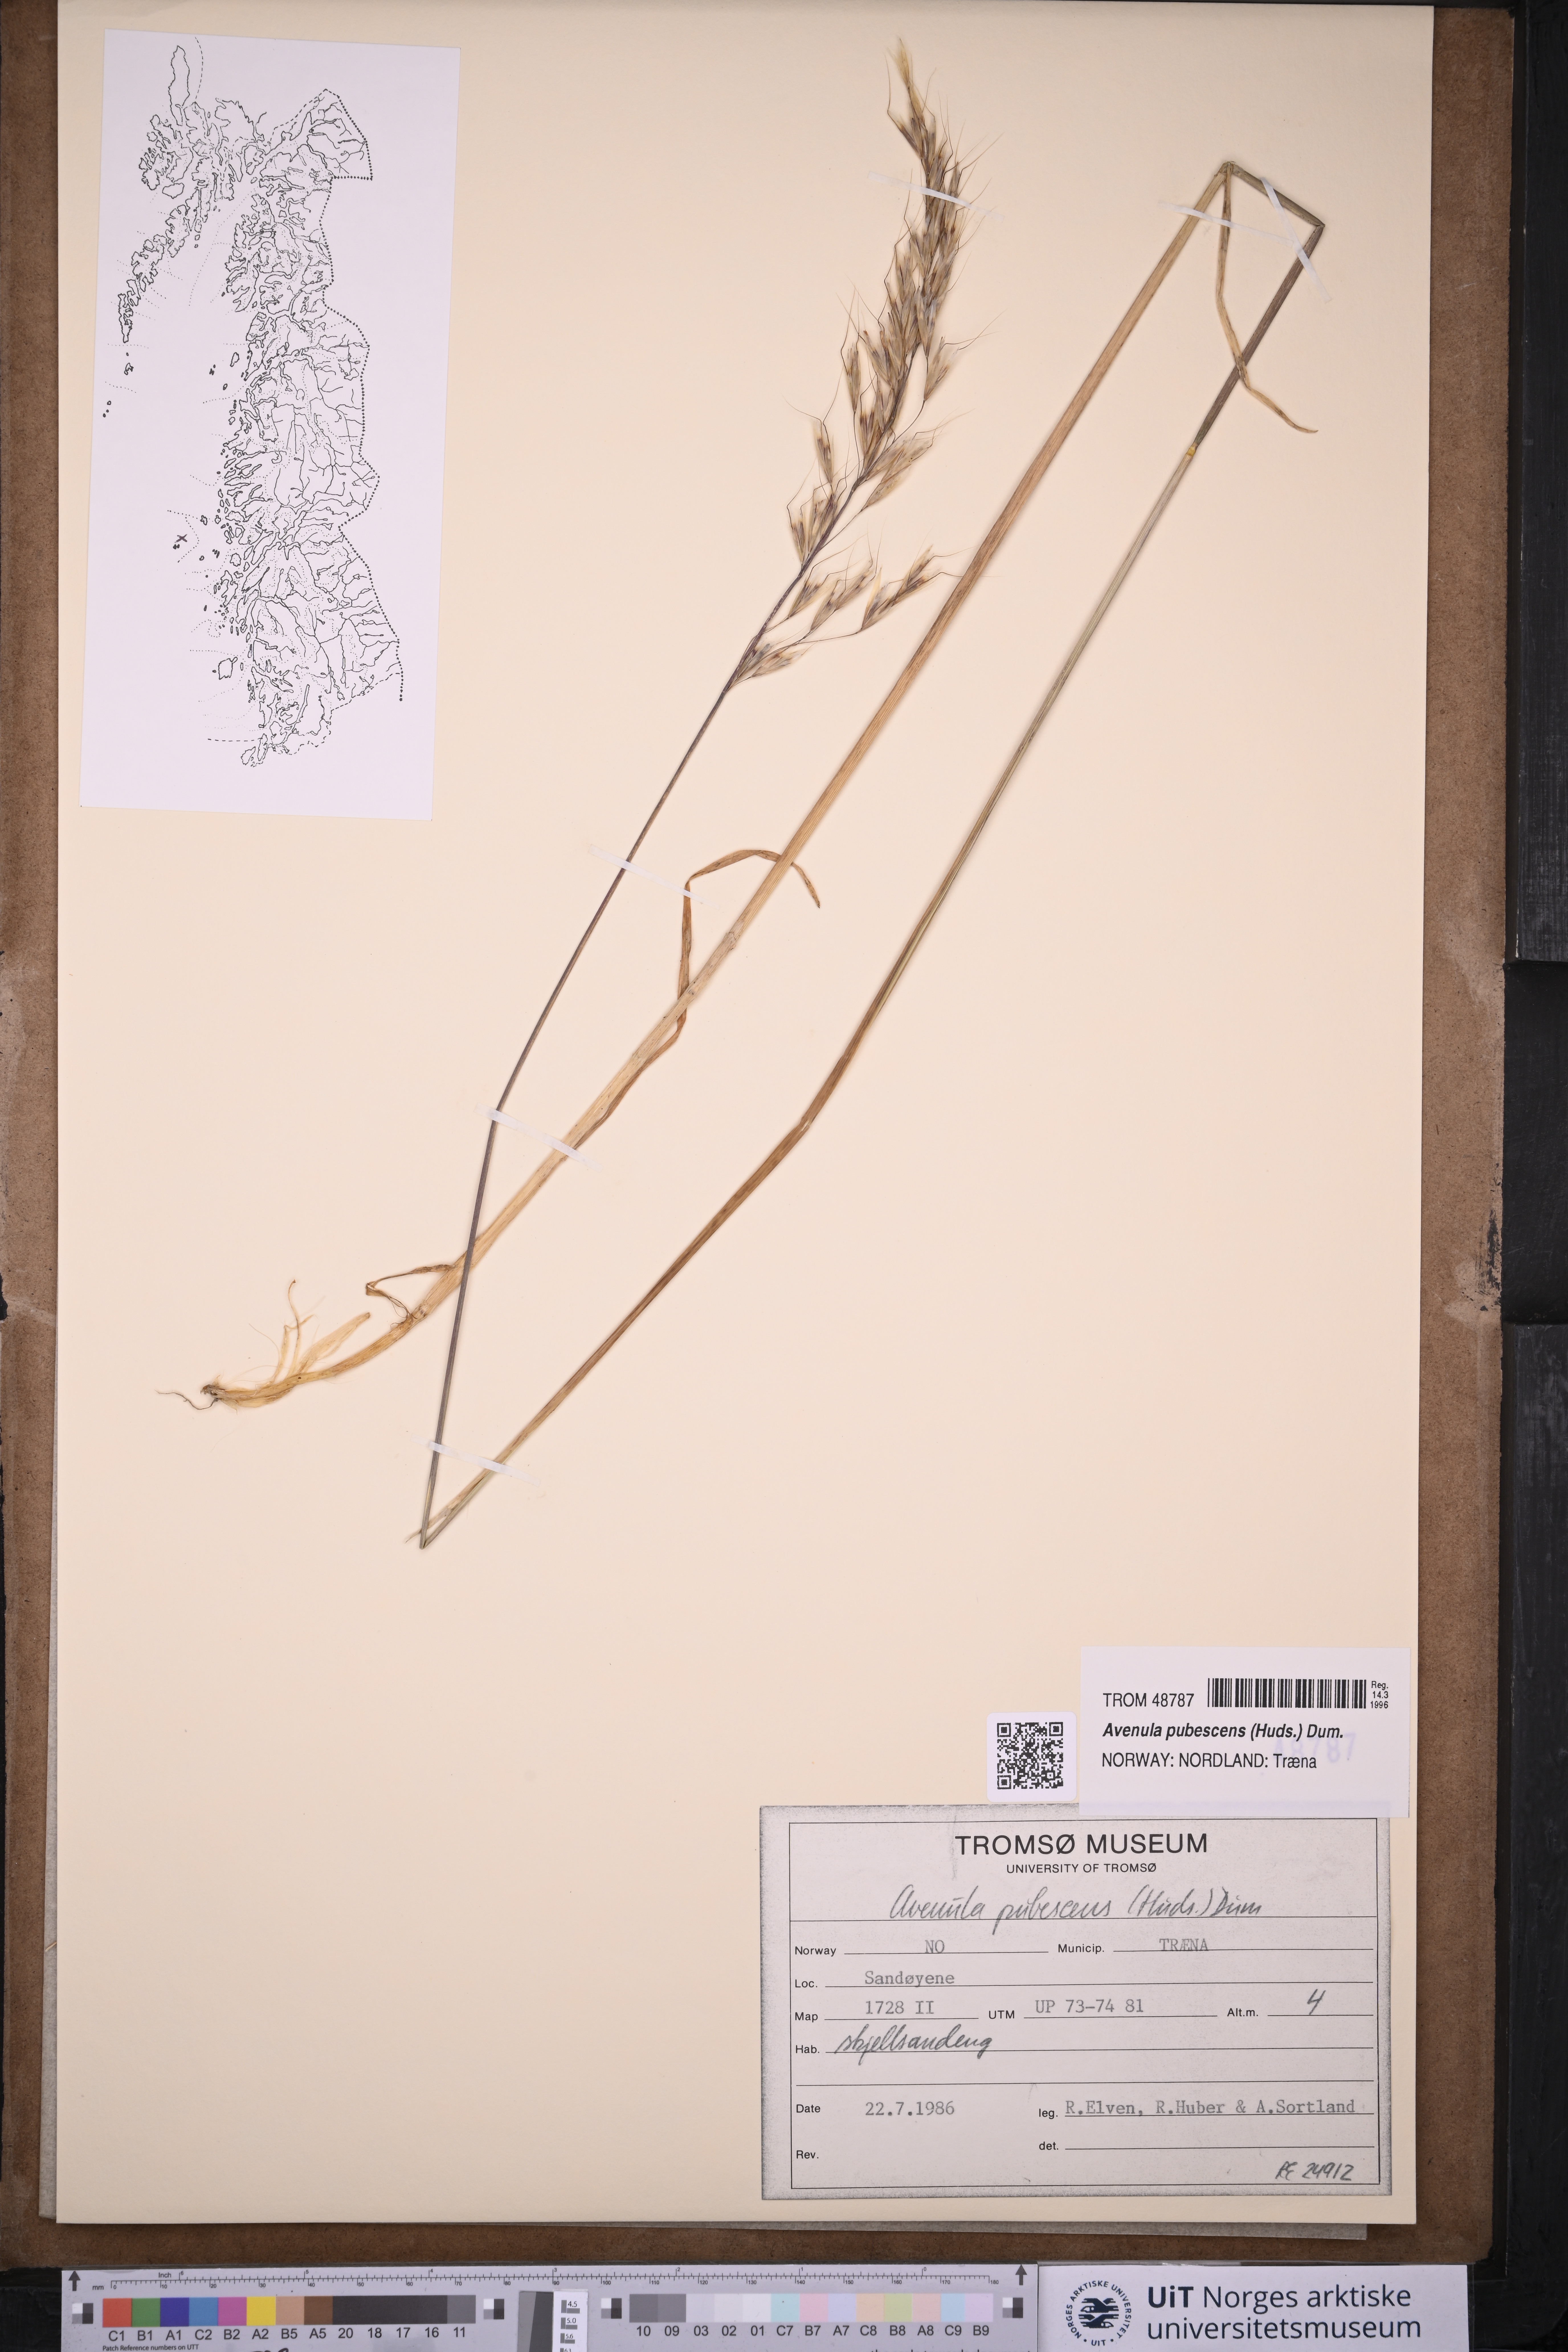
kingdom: Plantae
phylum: Tracheophyta
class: Liliopsida
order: Poales
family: Poaceae
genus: Avenula
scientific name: Avenula pubescens
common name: Downy alpine oatgrass
